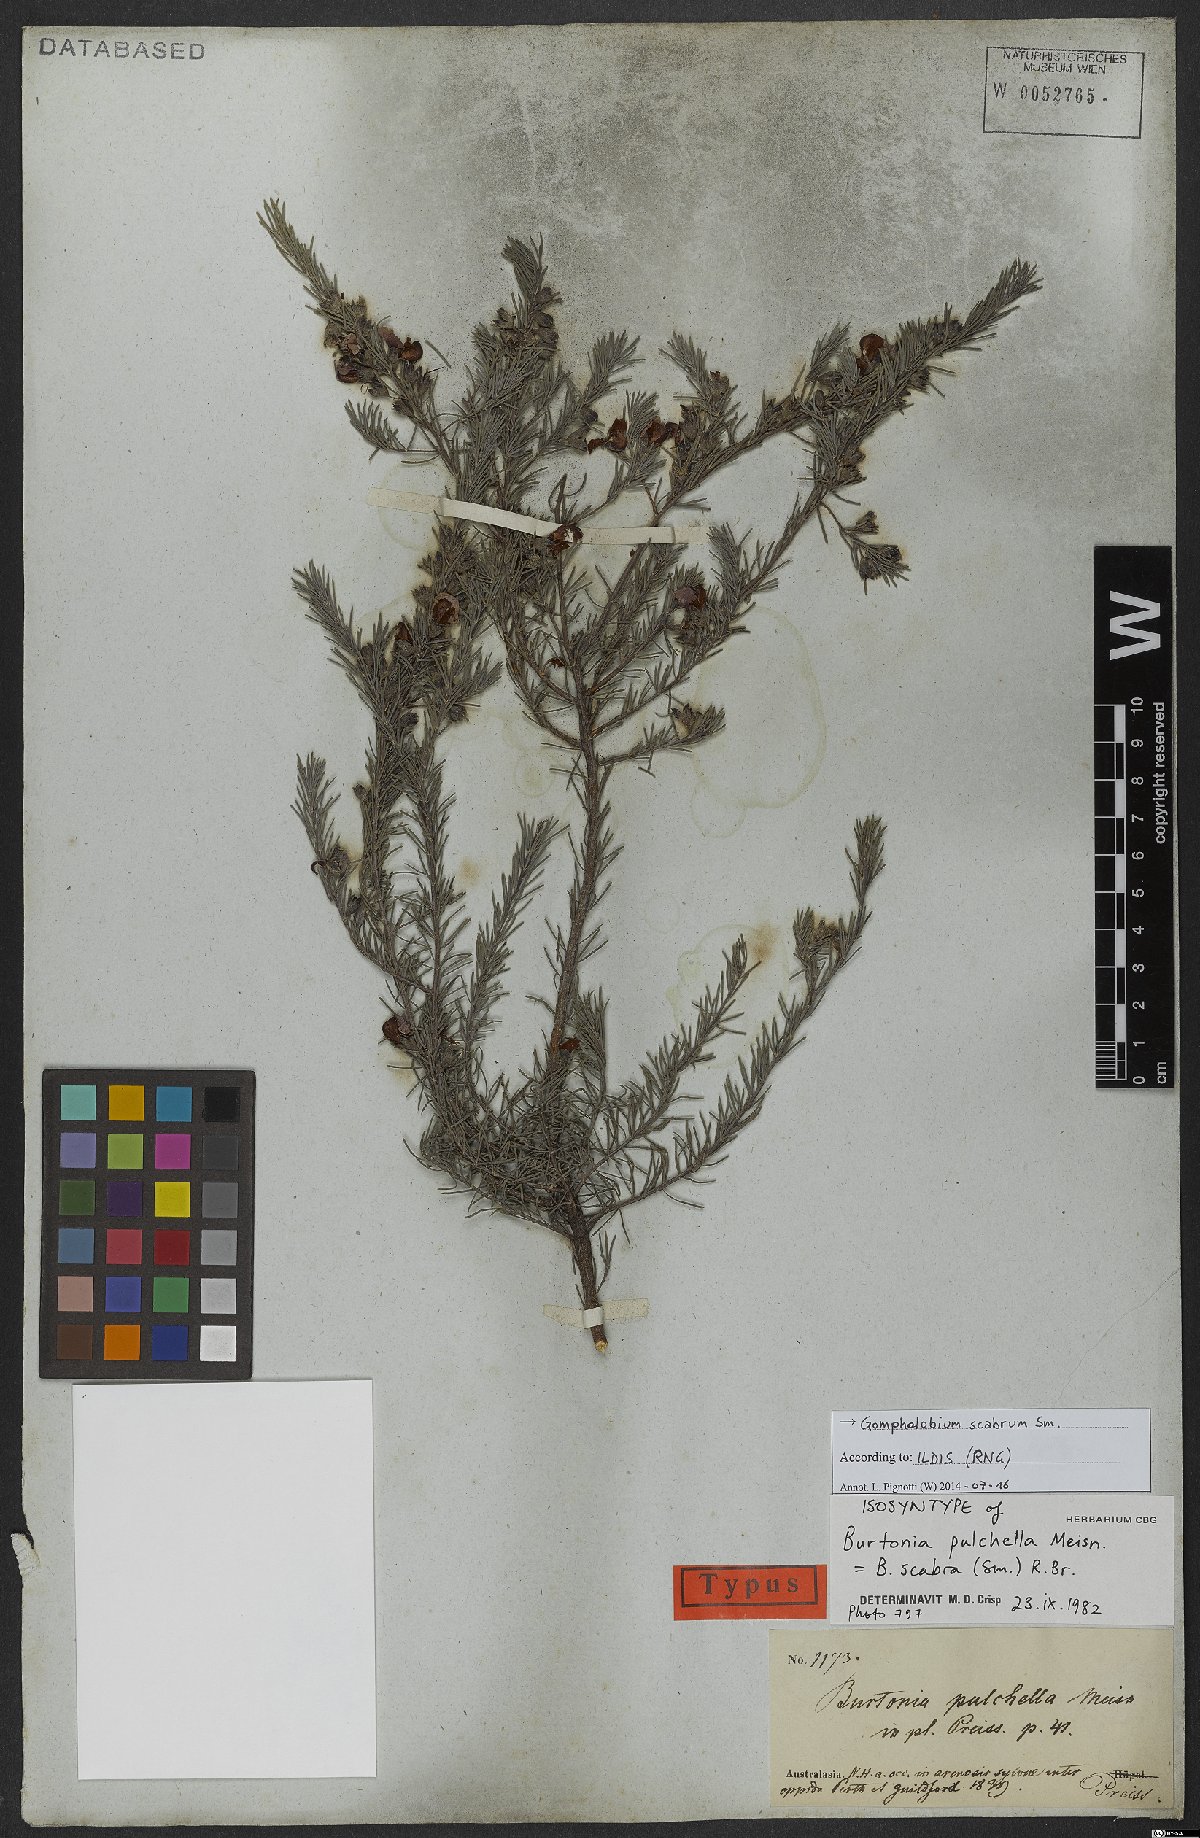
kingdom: Plantae
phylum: Tracheophyta
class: Magnoliopsida
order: Fabales
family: Fabaceae
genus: Gompholobium
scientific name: Gompholobium scabrum
